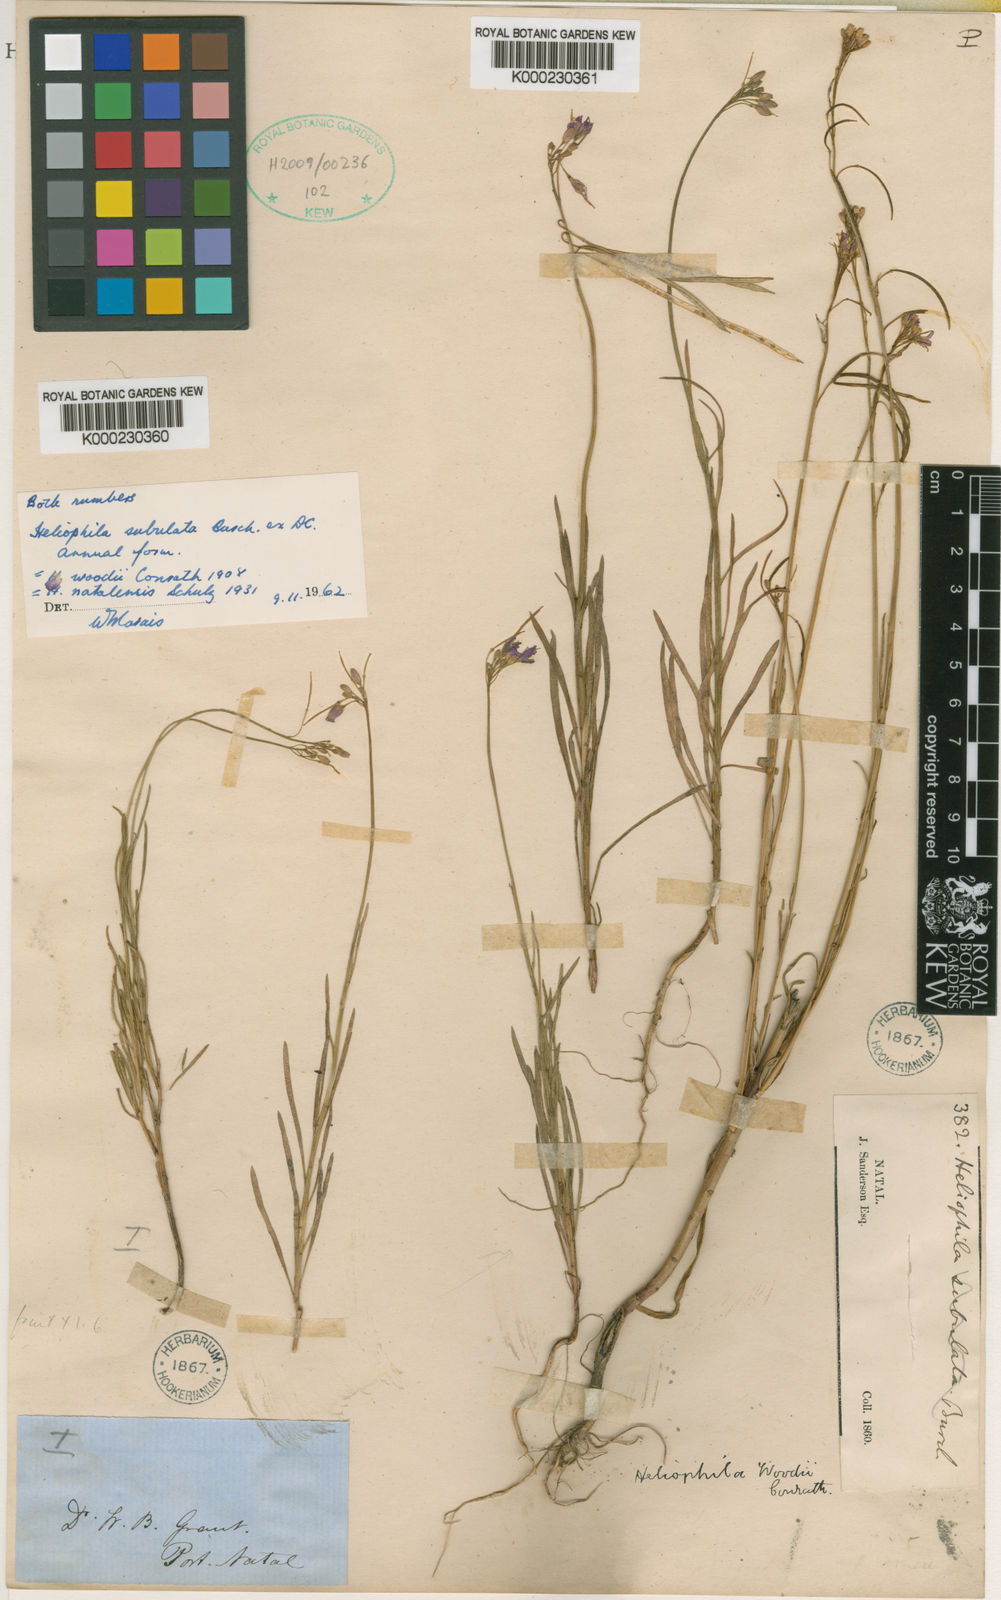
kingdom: Plantae
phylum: Tracheophyta
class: Magnoliopsida
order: Brassicales
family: Brassicaceae
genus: Heliophila
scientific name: Heliophila subulata
